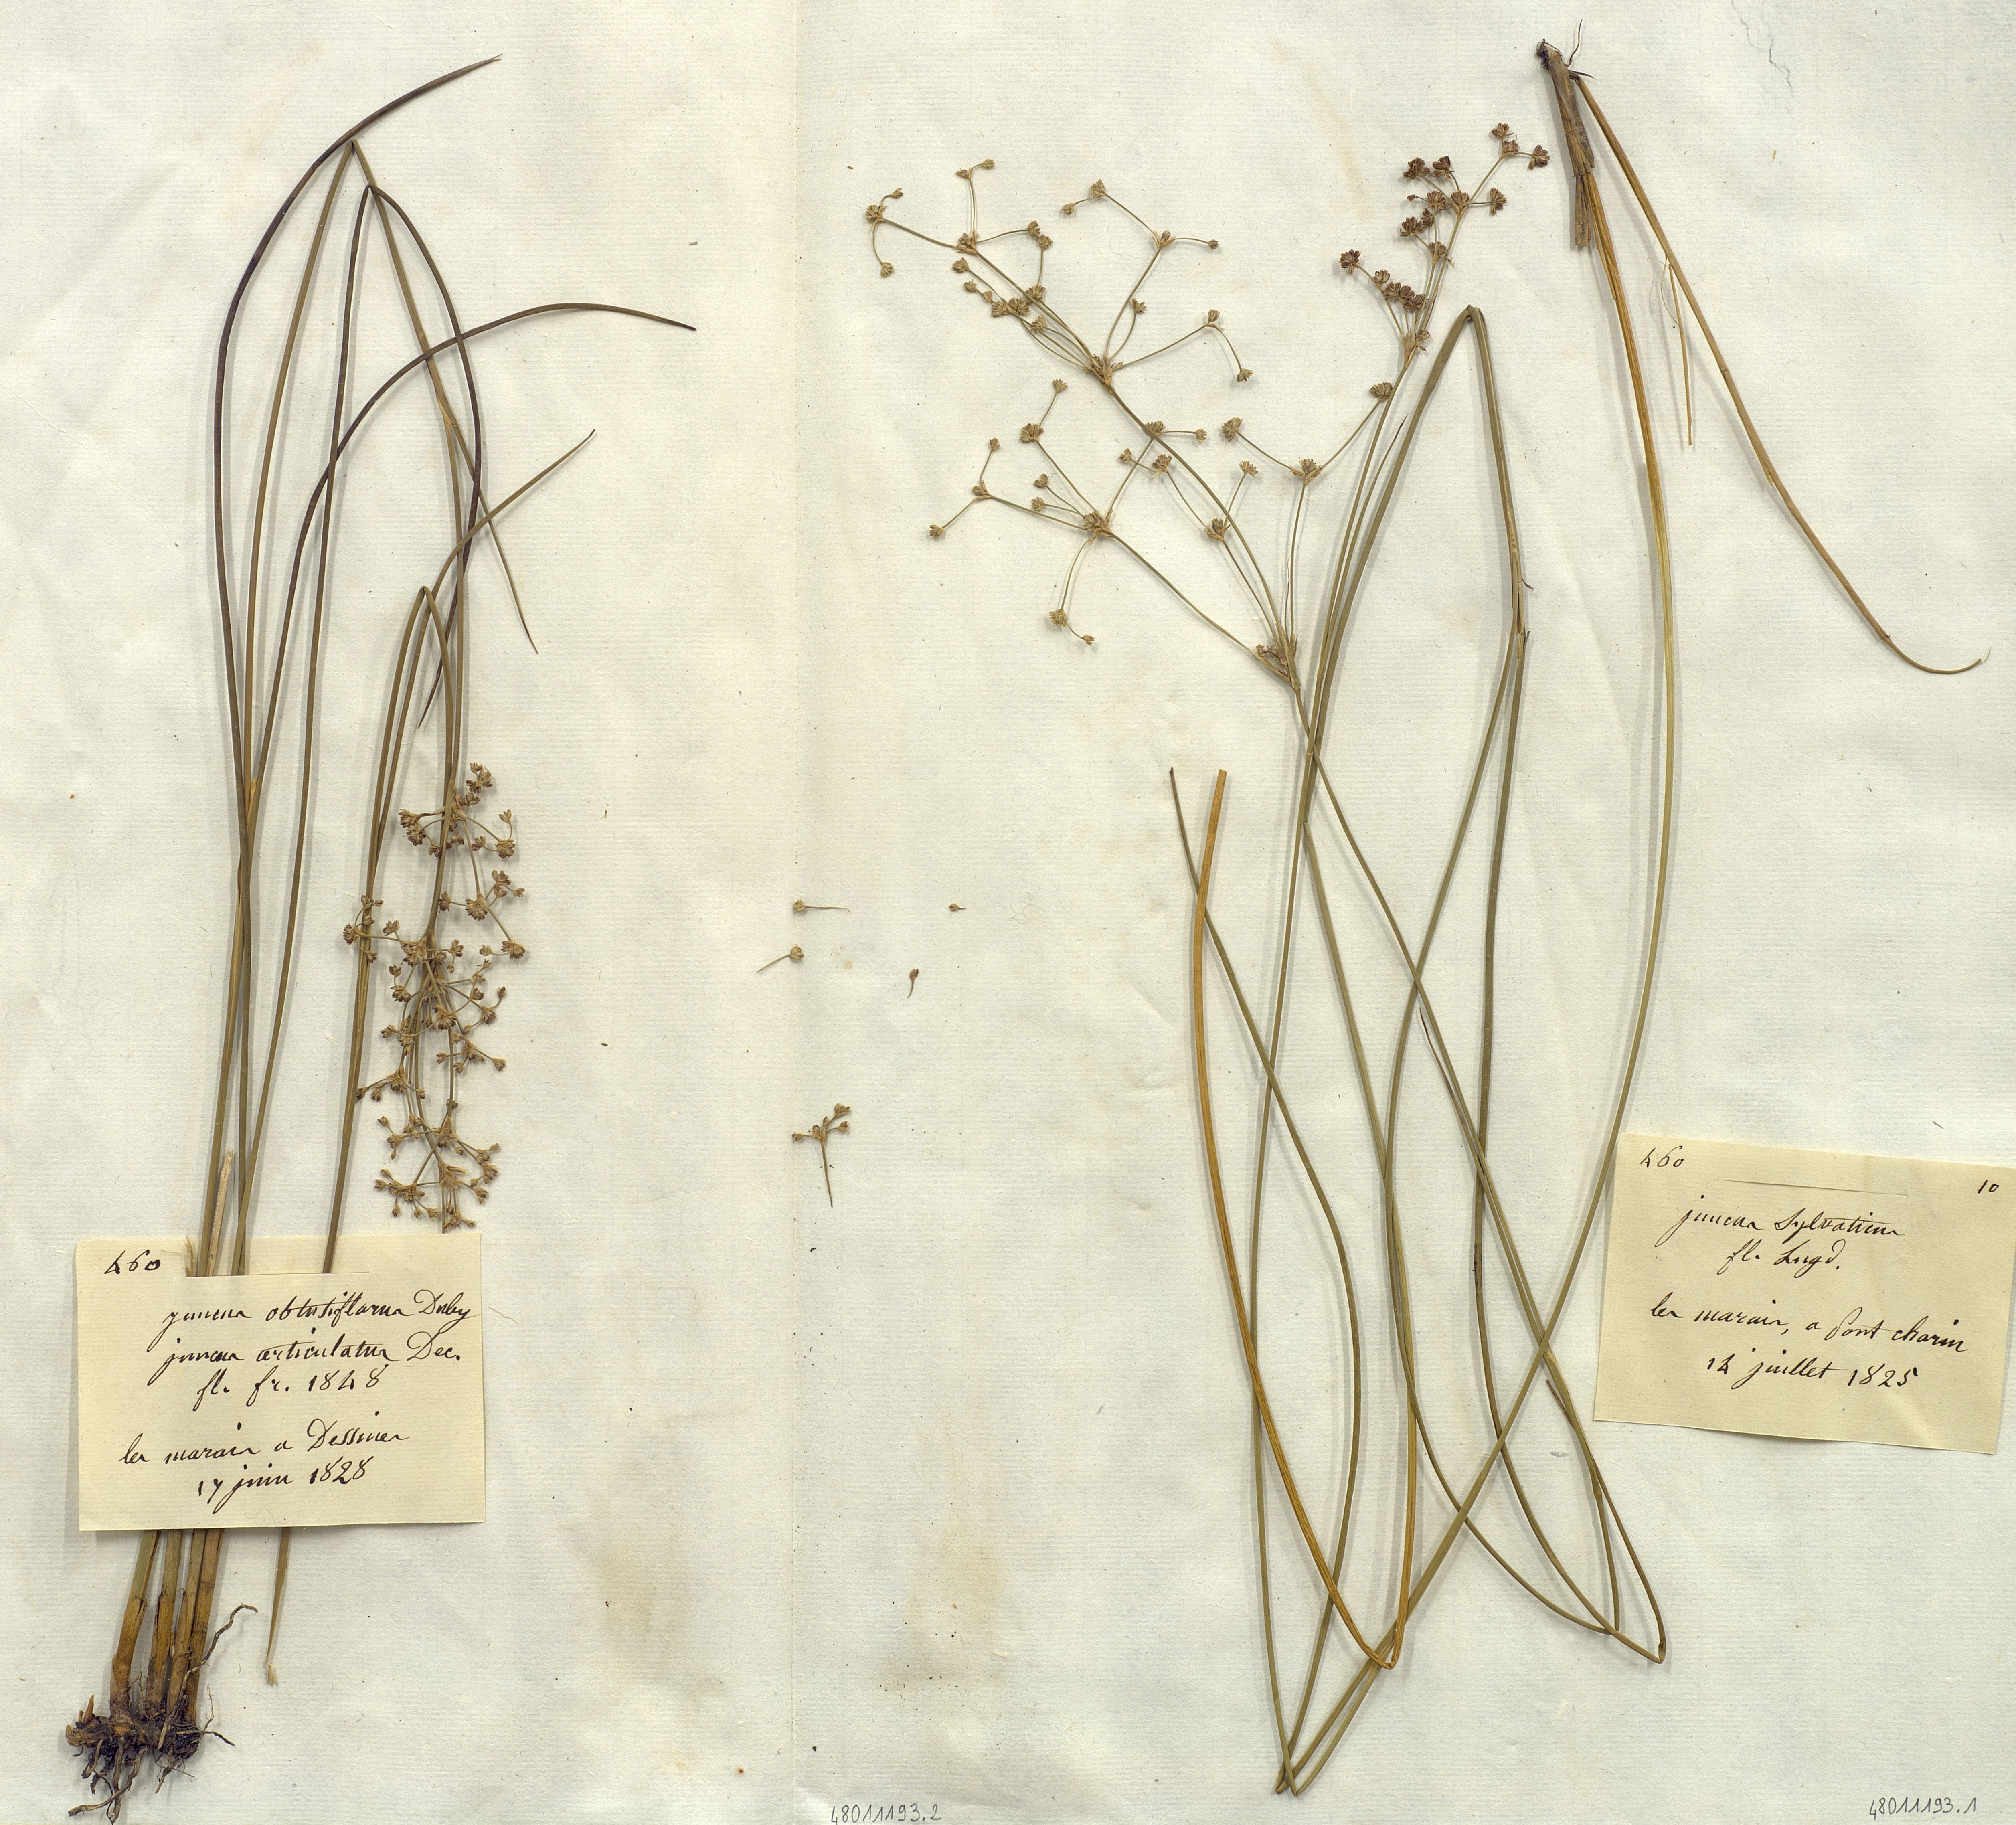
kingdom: Plantae
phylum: Tracheophyta
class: Liliopsida
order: Poales
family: Juncaceae
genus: Juncus
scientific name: Juncus obtusiflorus
